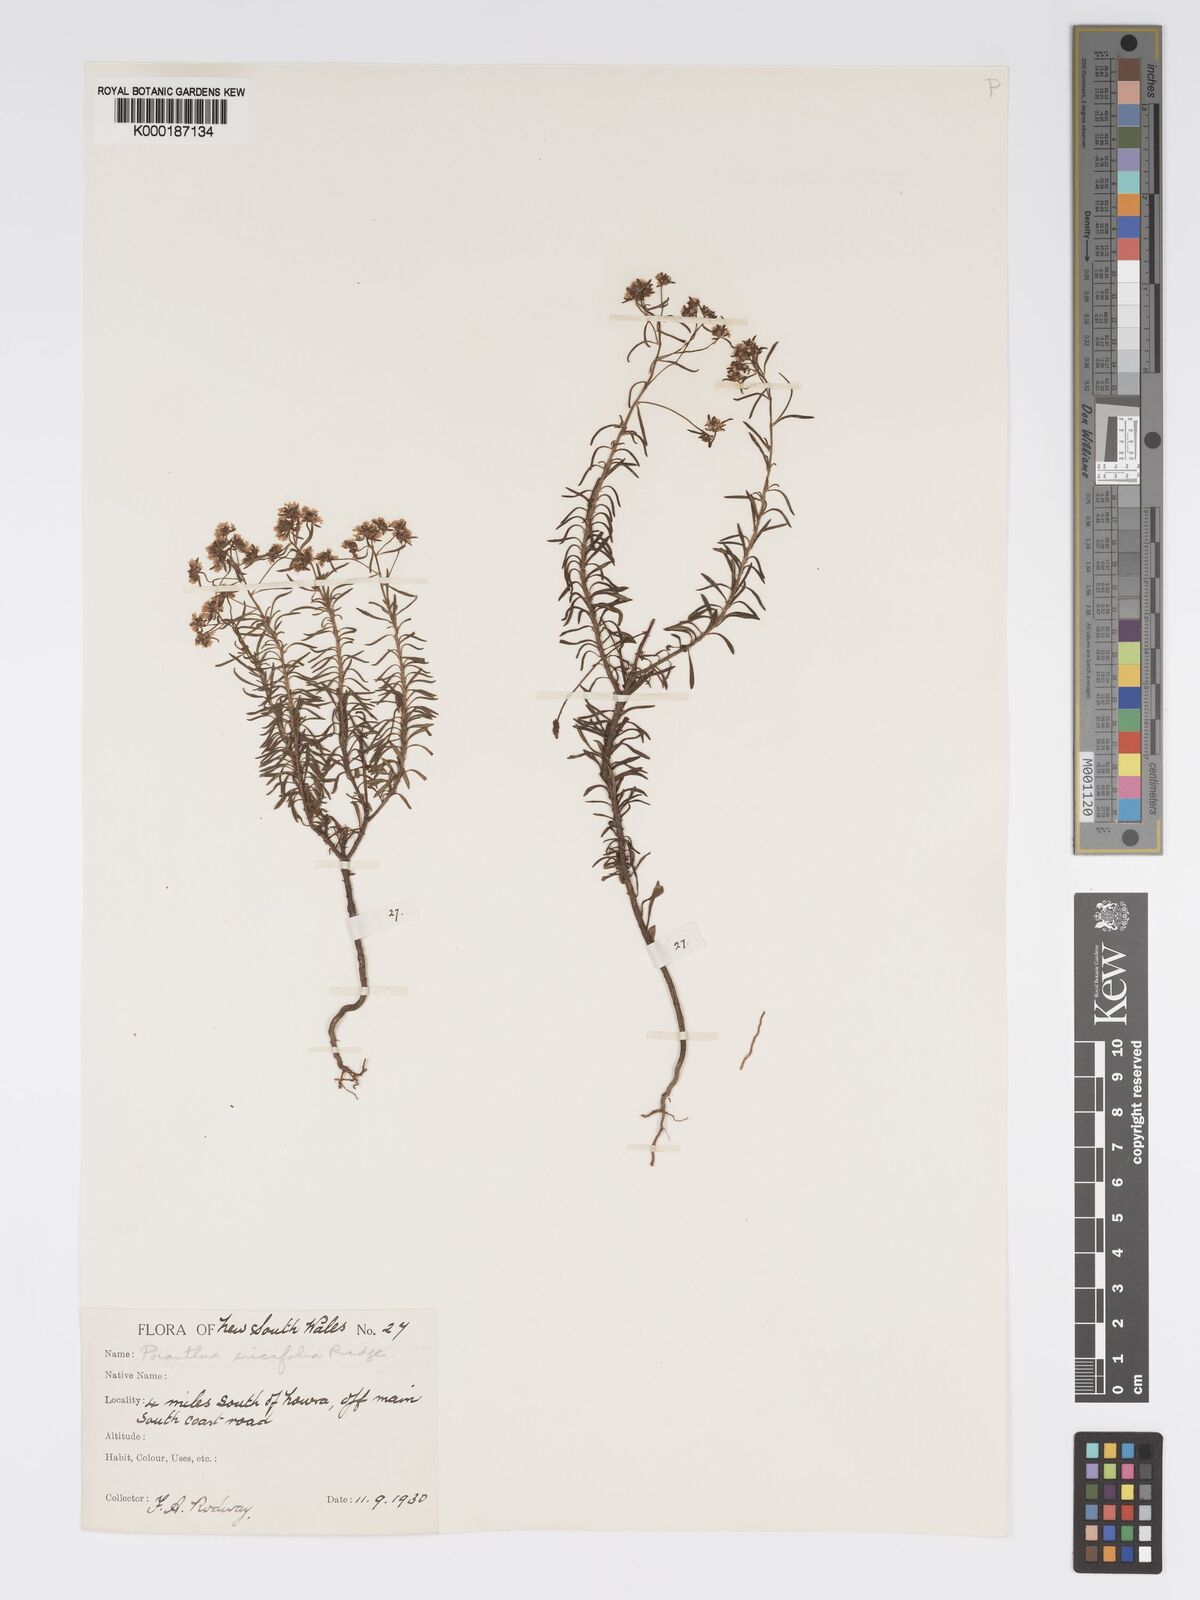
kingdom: Plantae
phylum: Tracheophyta
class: Magnoliopsida
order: Malpighiales
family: Phyllanthaceae
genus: Poranthera
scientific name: Poranthera ericifolia
